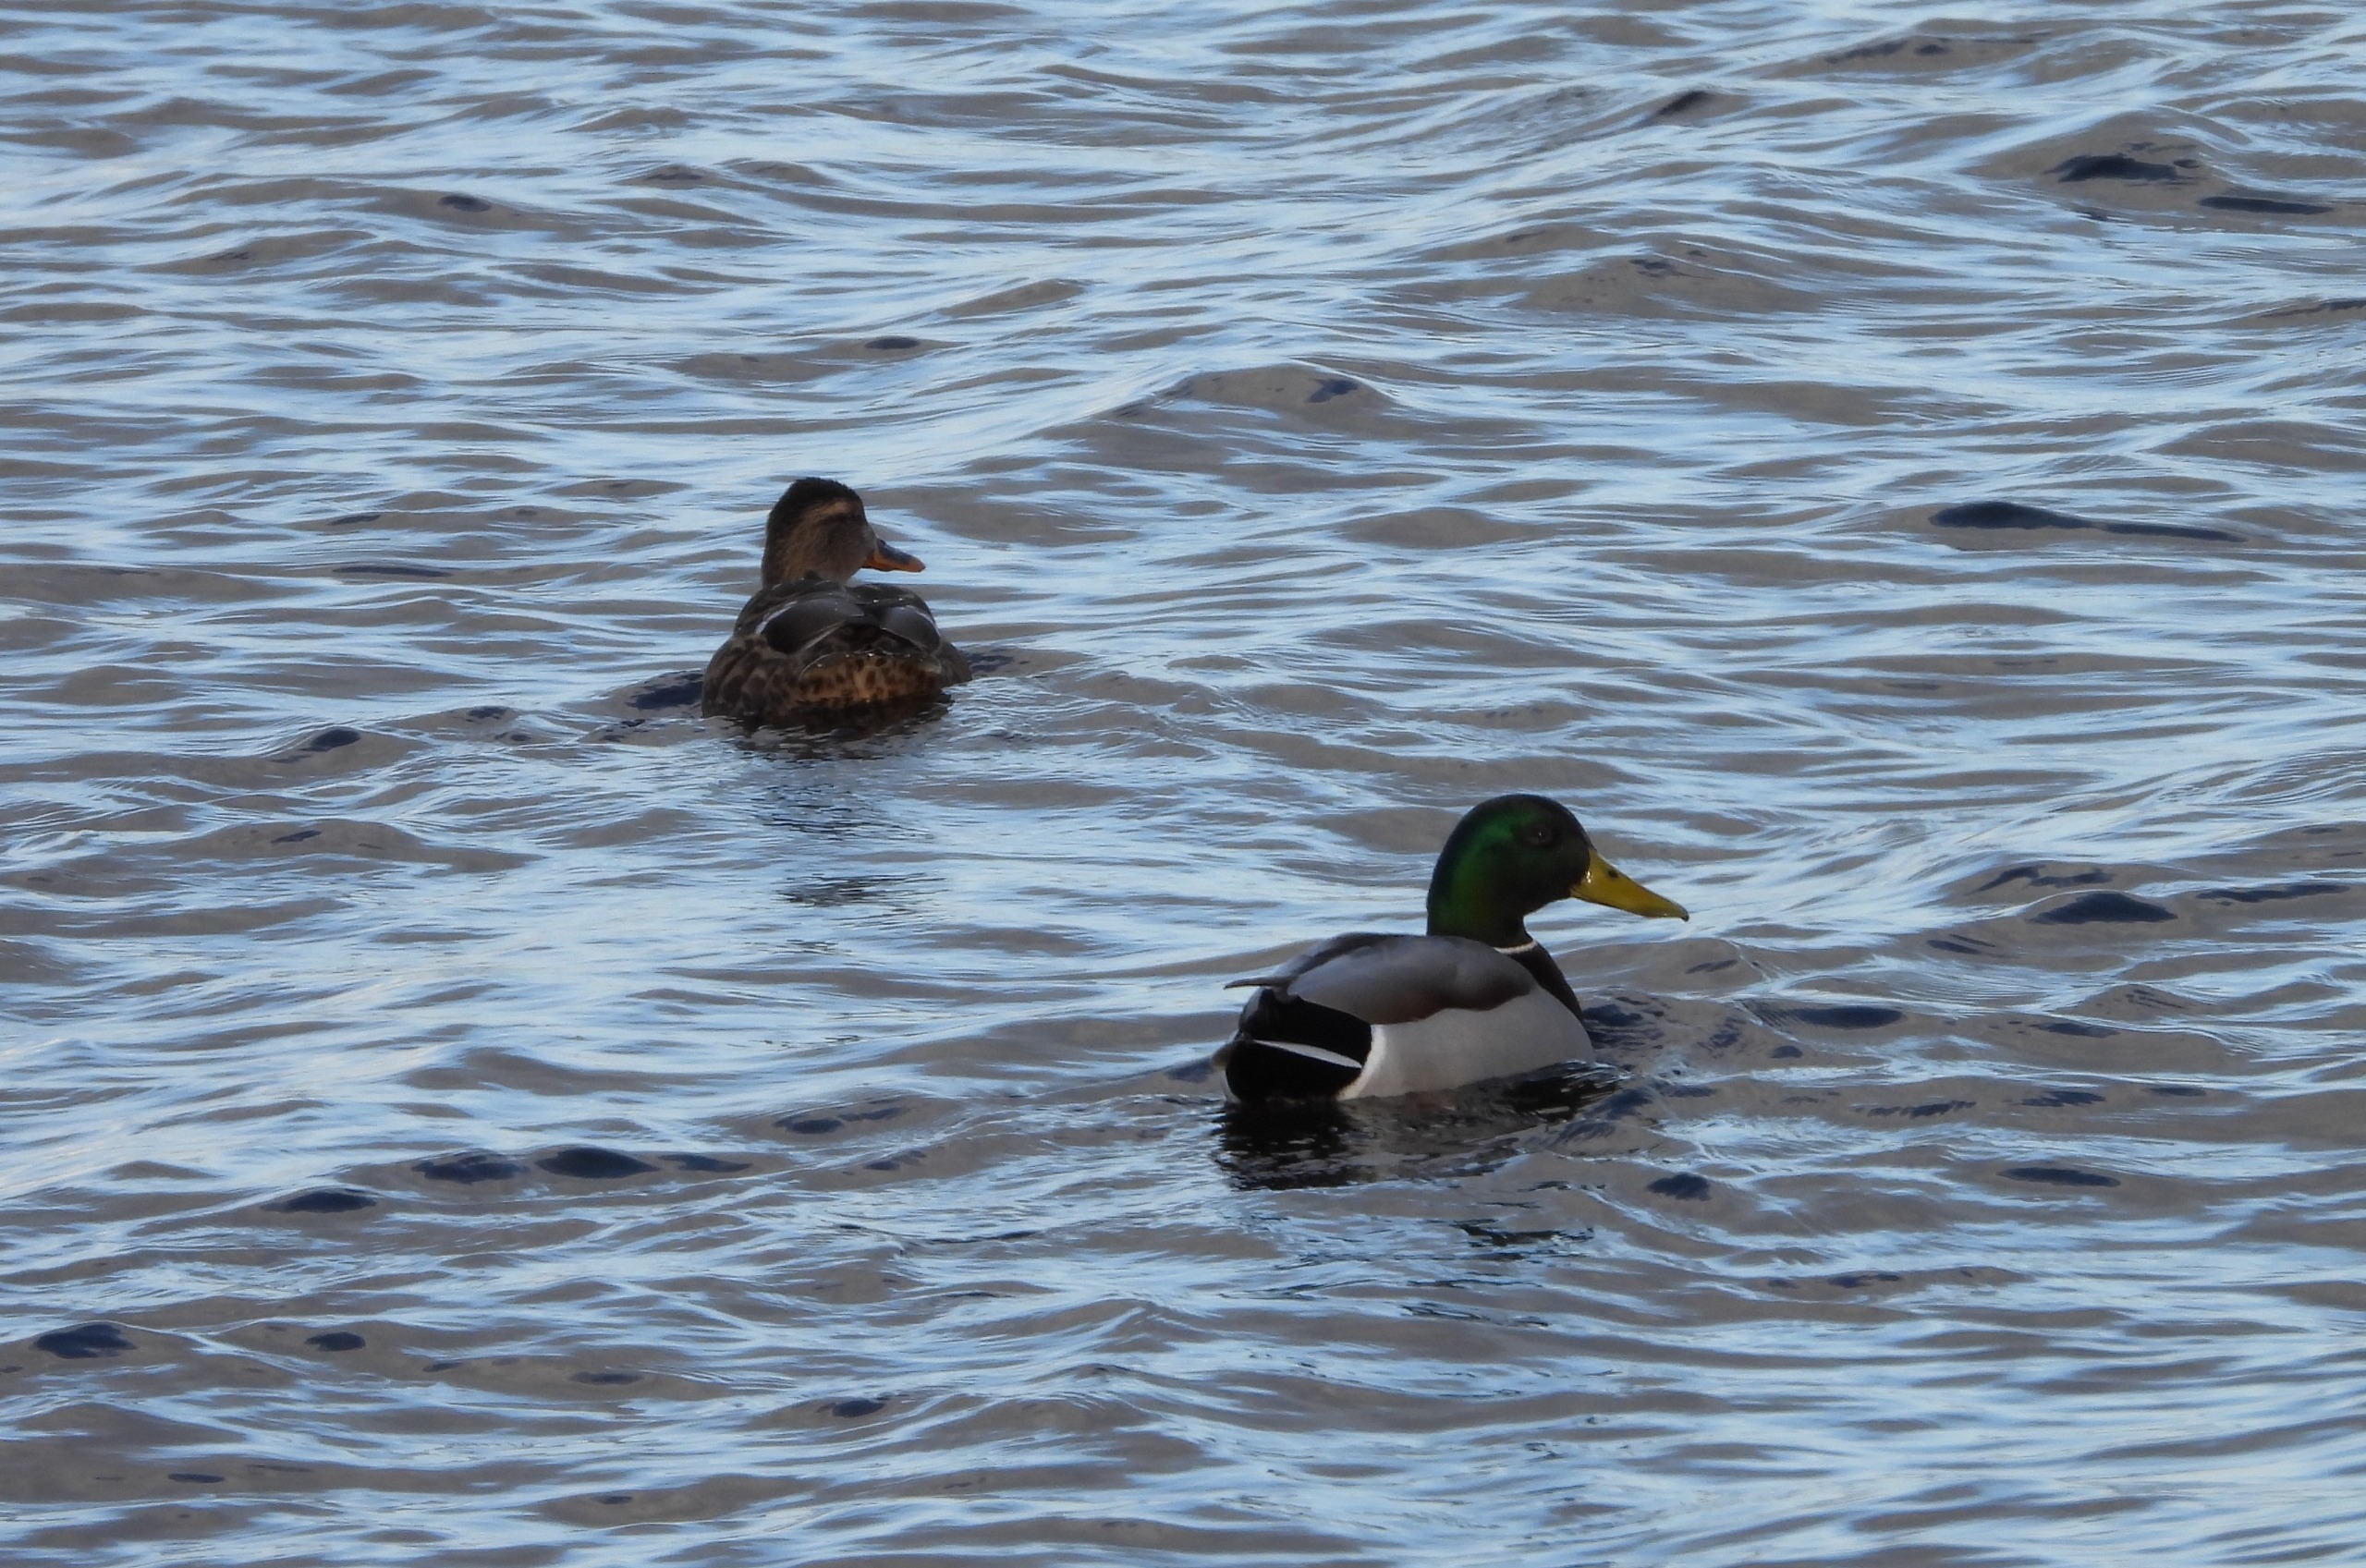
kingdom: Animalia
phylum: Chordata
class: Aves
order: Anseriformes
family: Anatidae
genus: Anas
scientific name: Anas platyrhynchos
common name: Gråand
